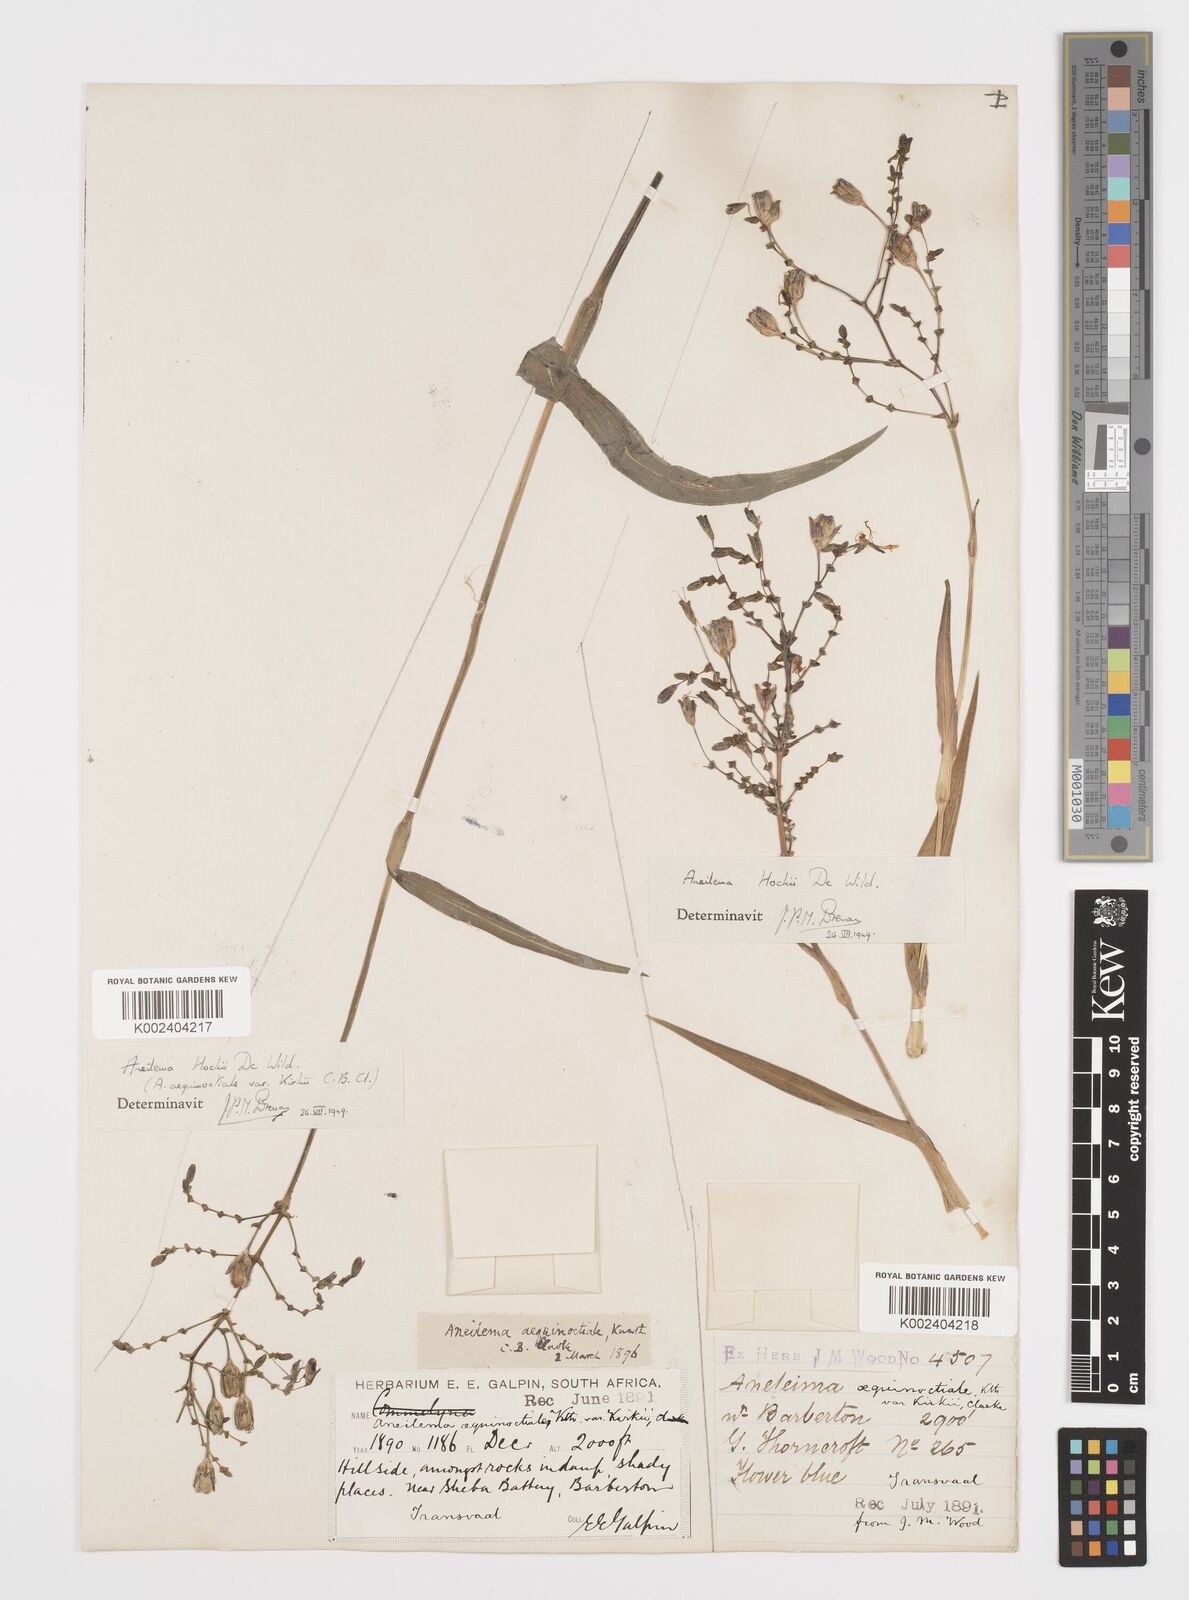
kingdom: Plantae
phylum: Tracheophyta
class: Liliopsida
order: Commelinales
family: Commelinaceae
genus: Aneilema
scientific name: Aneilema hockii
